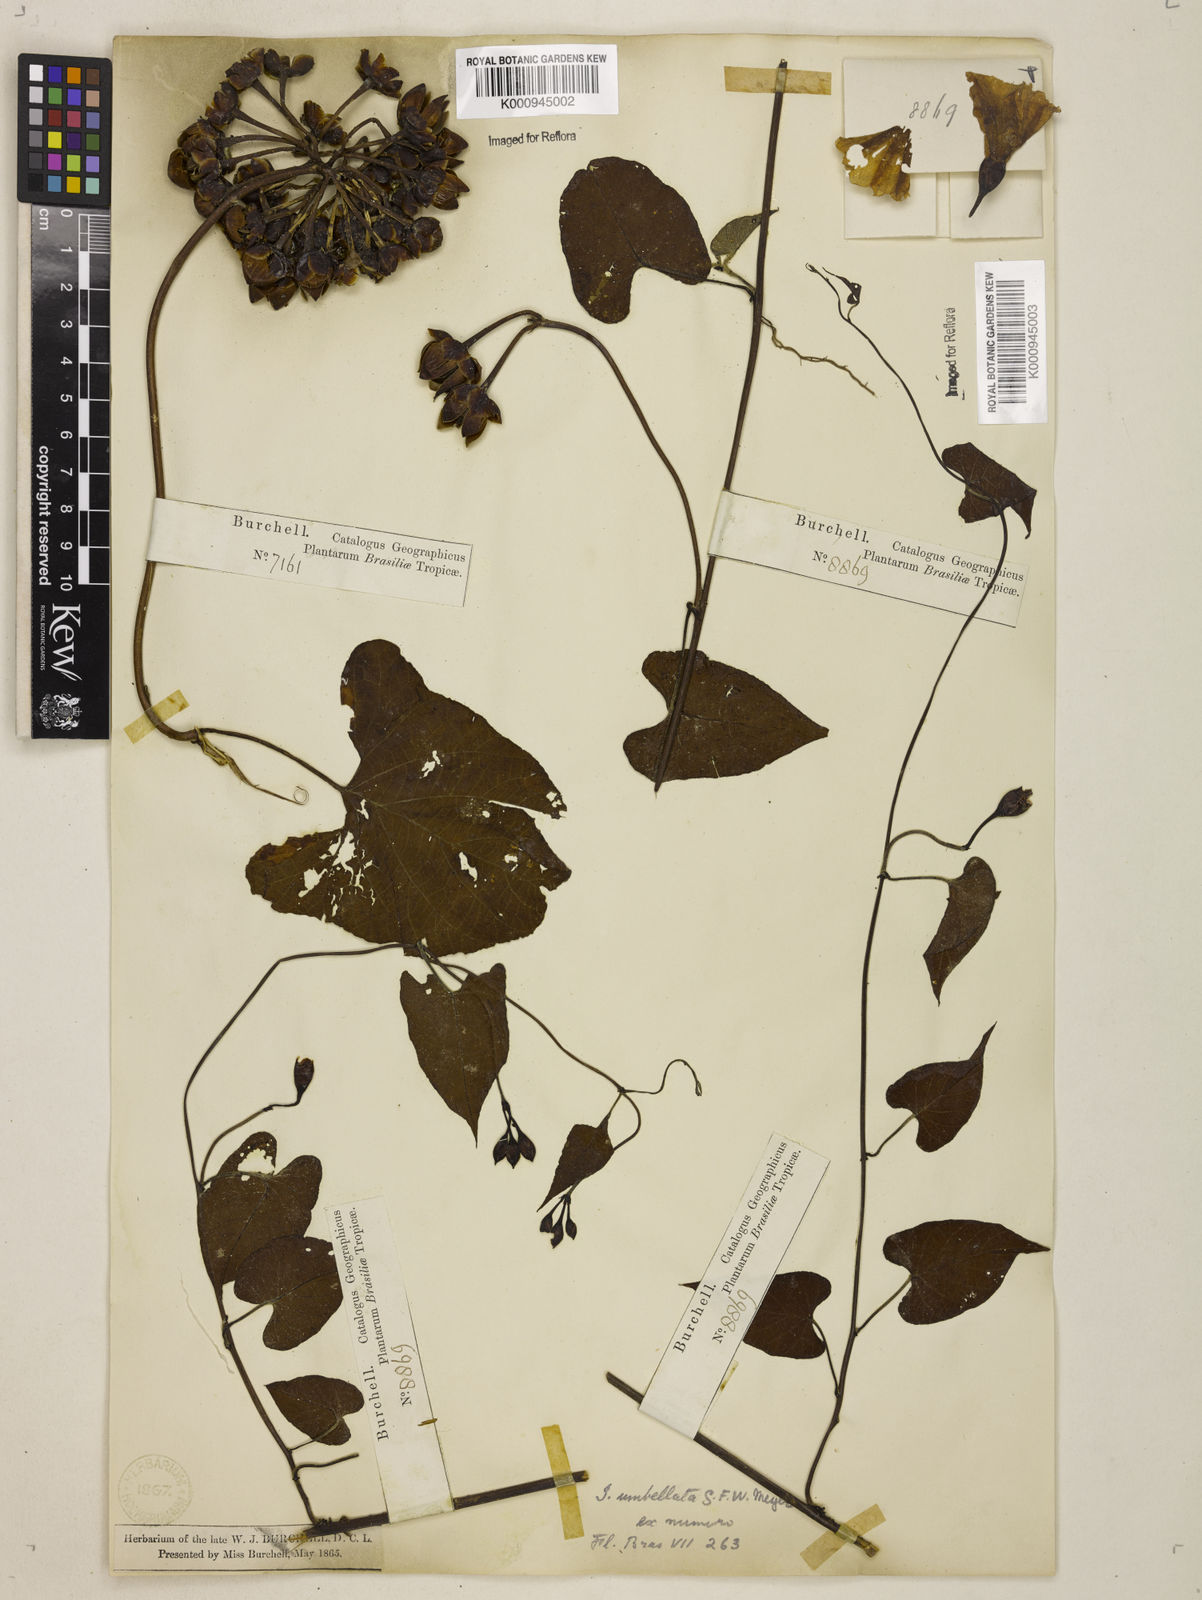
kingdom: Plantae
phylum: Tracheophyta
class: Magnoliopsida
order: Solanales
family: Convolvulaceae
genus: Camonea
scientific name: Camonea umbellata
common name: Hogvine
